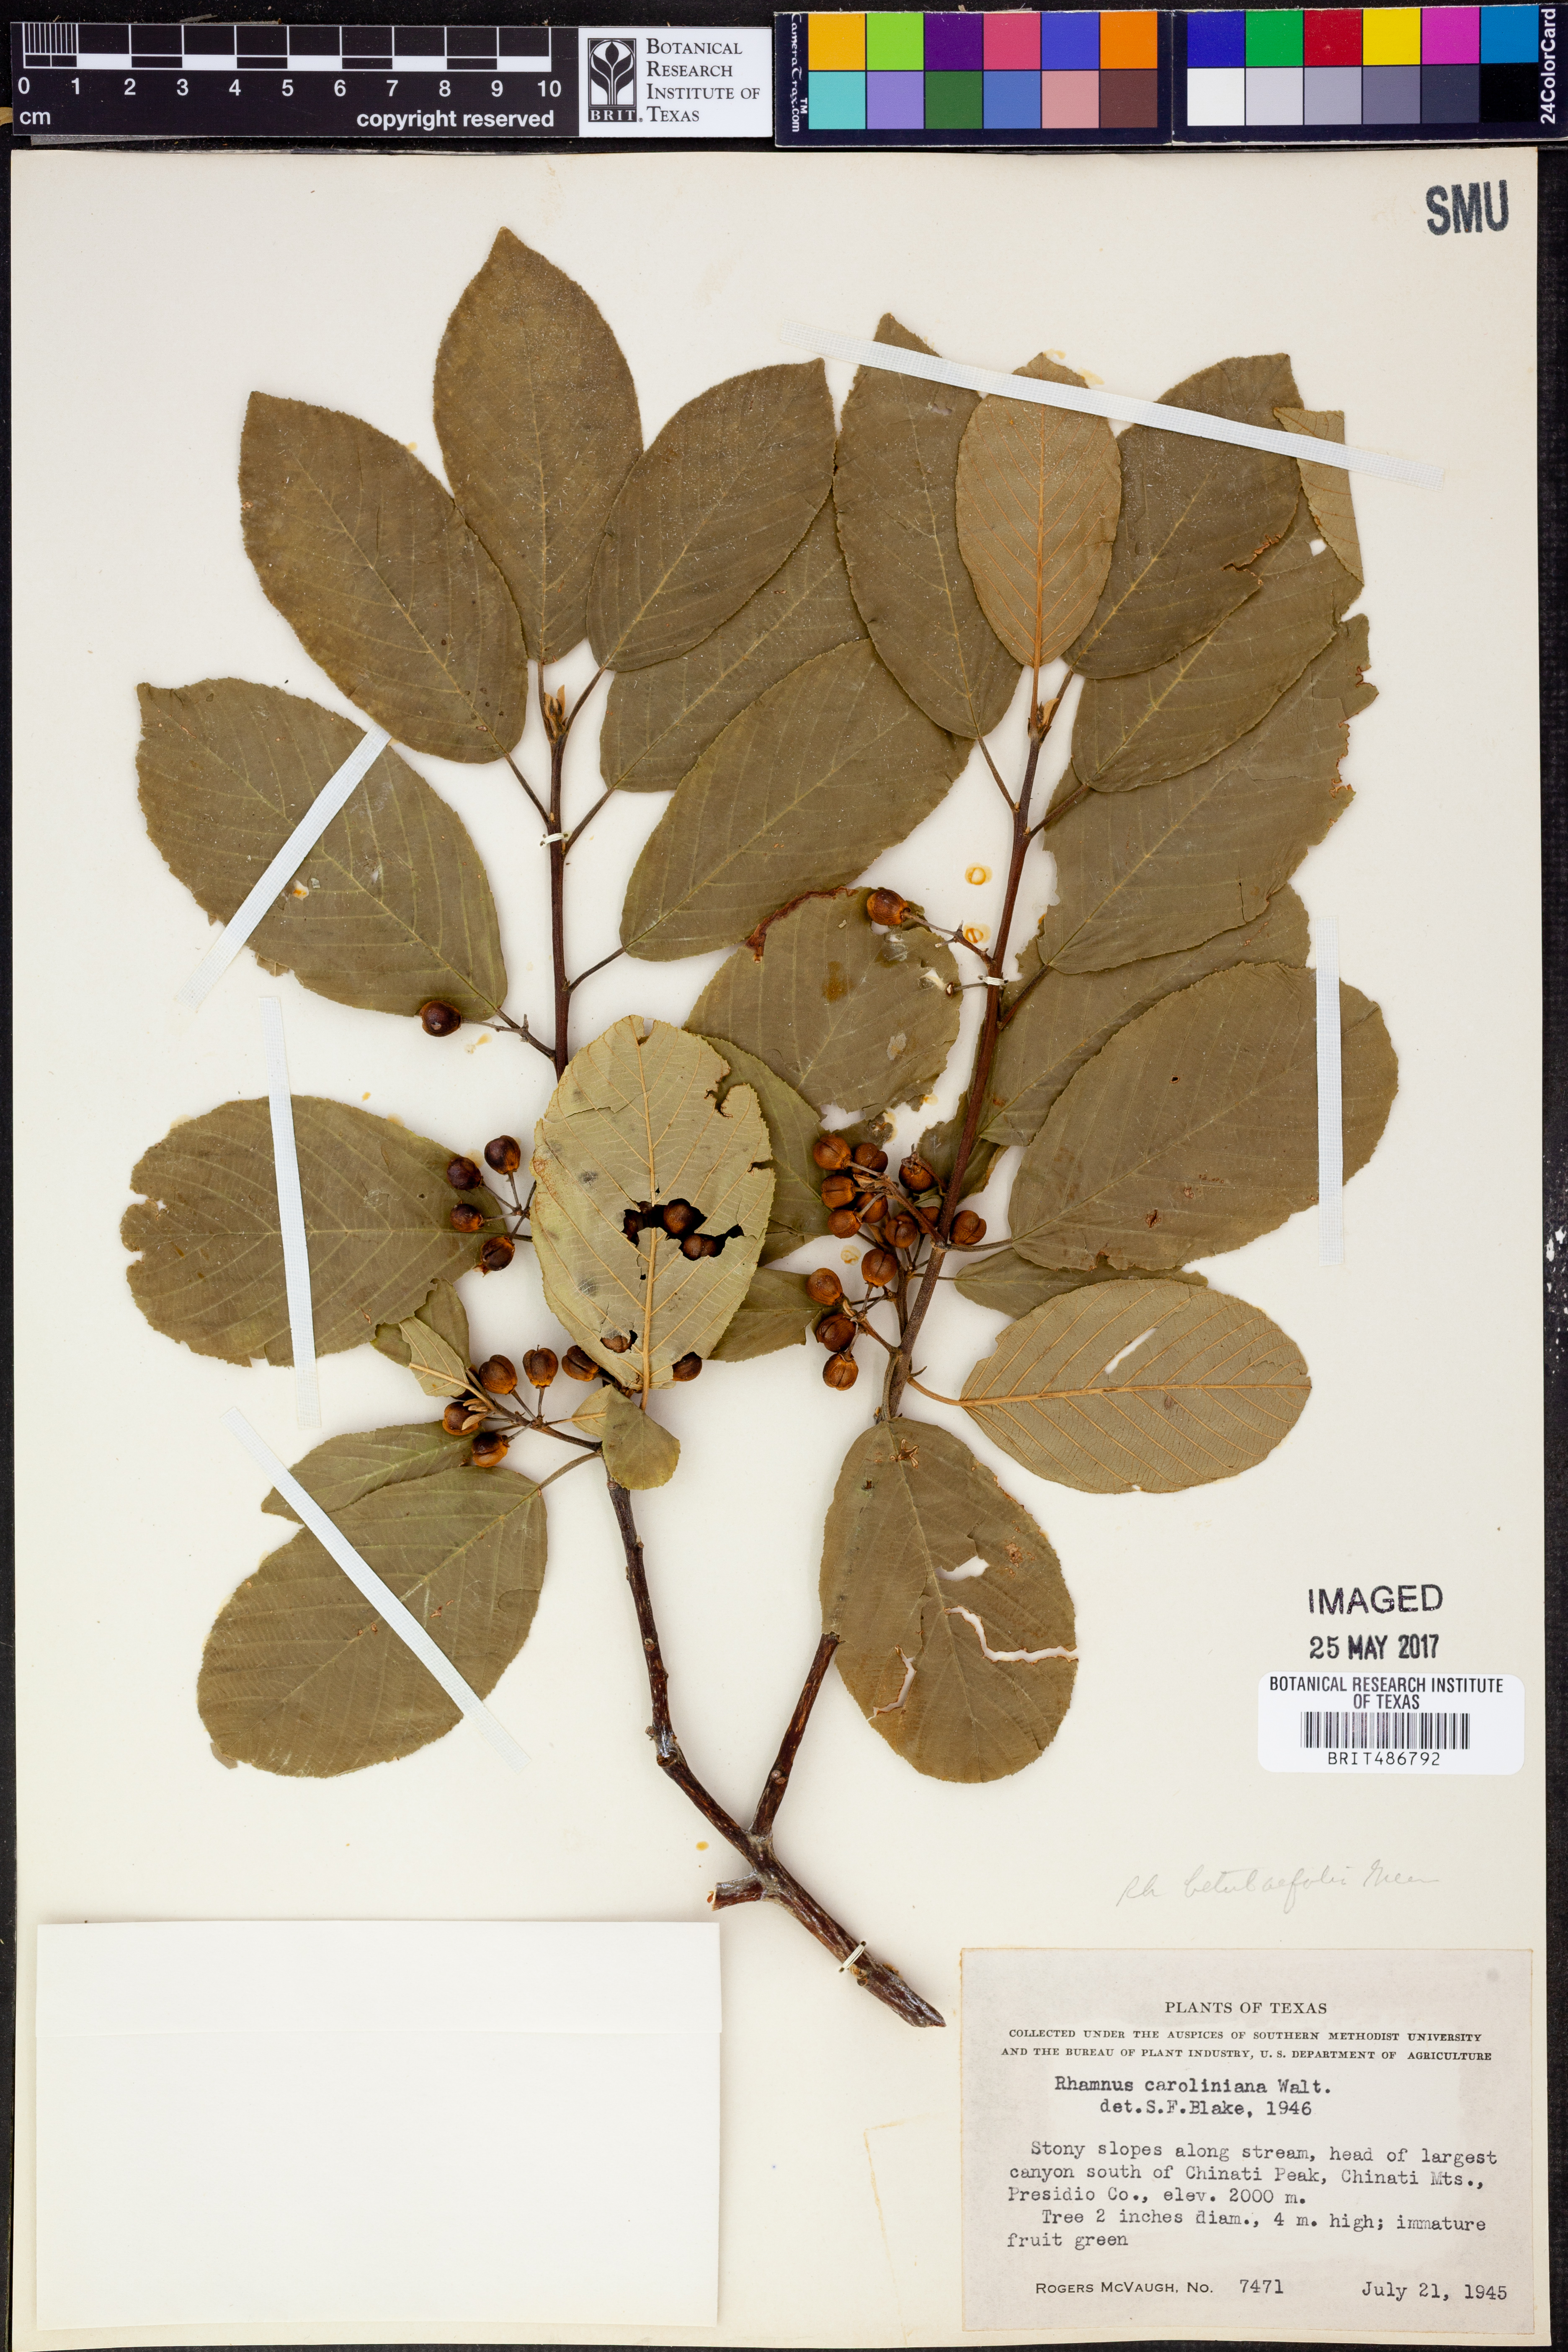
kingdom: Plantae
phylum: Tracheophyta
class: Magnoliopsida
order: Rosales
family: Rhamnaceae
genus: Frangula
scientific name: Frangula caroliniana
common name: Carolina buckthorn
